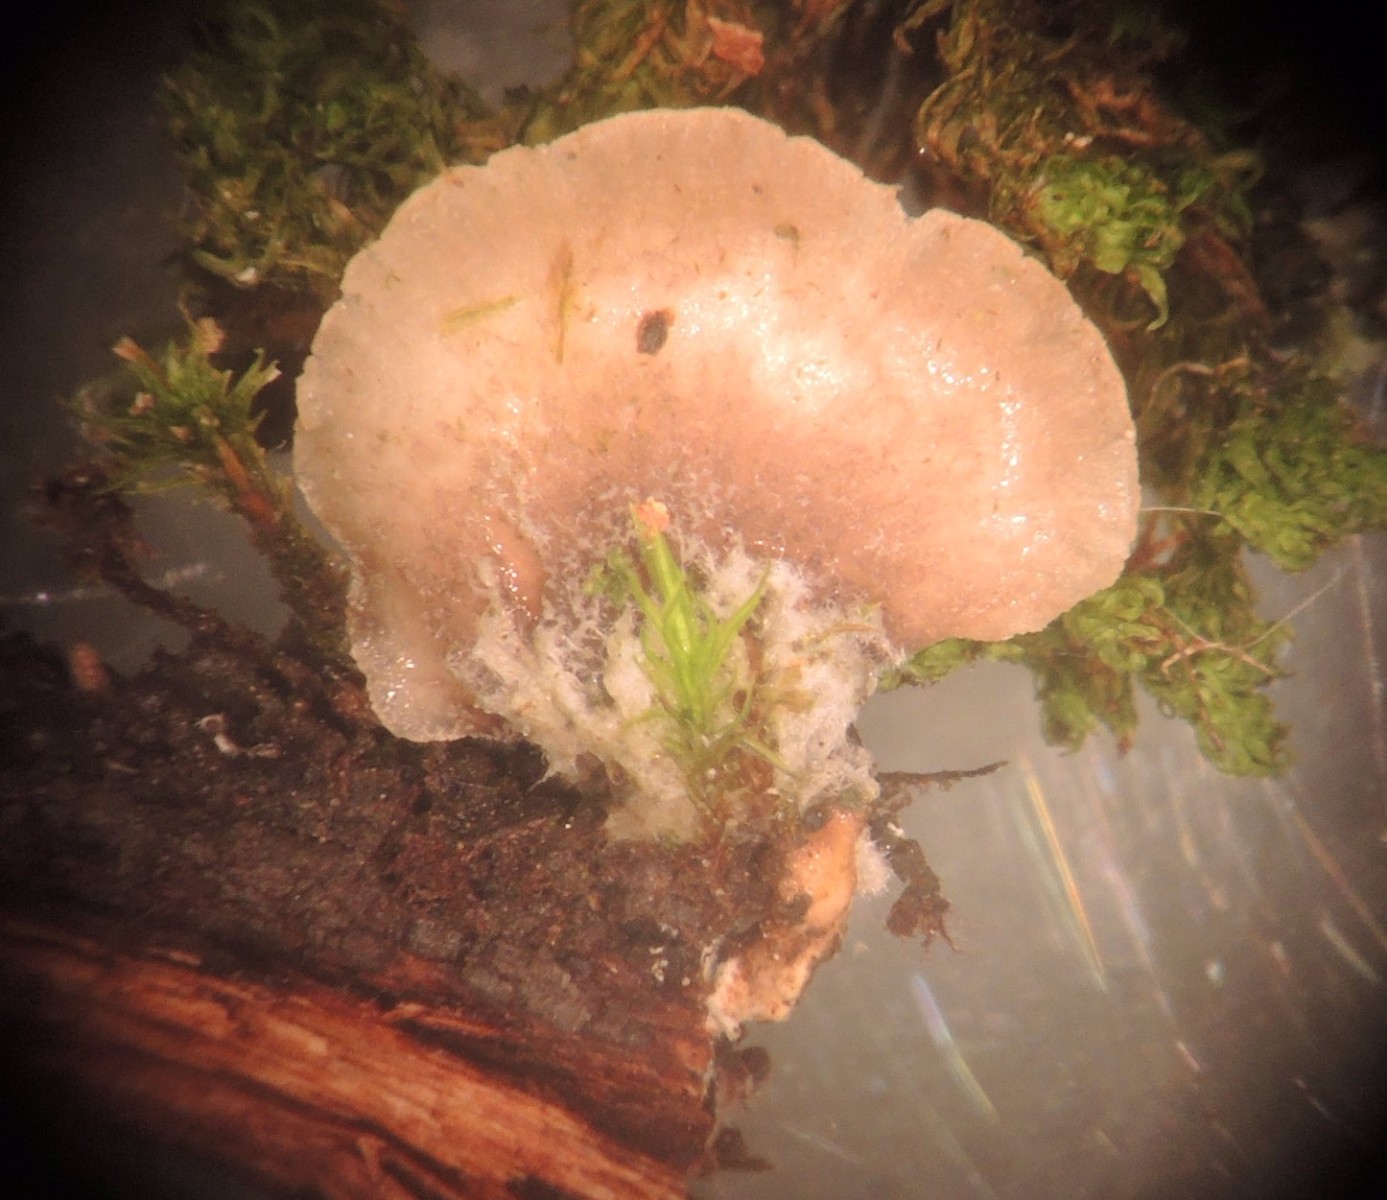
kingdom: Fungi
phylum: Basidiomycota
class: Agaricomycetes
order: Agaricales
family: Pleurotaceae
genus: Hohenbuehelia
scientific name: Hohenbuehelia fluxilis
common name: pile-filthat
